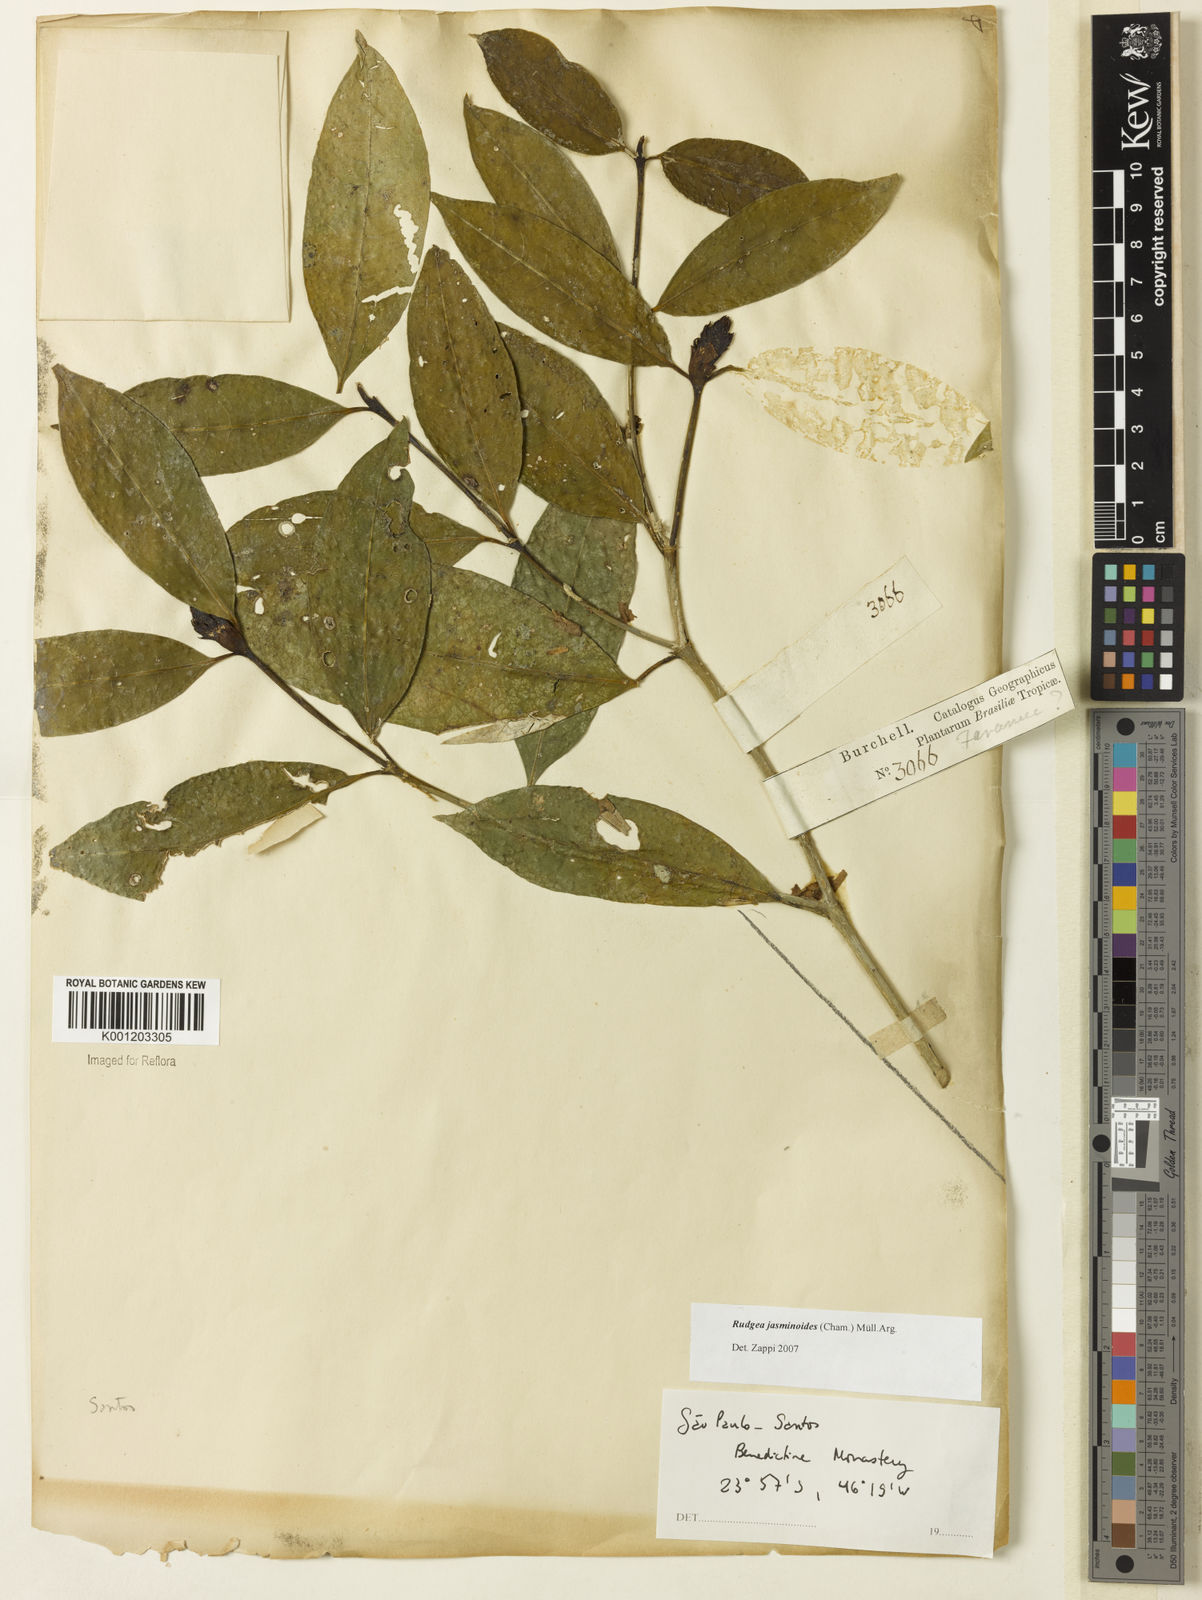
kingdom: Plantae
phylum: Tracheophyta
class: Magnoliopsida
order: Gentianales
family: Rubiaceae
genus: Rudgea
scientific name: Rudgea
